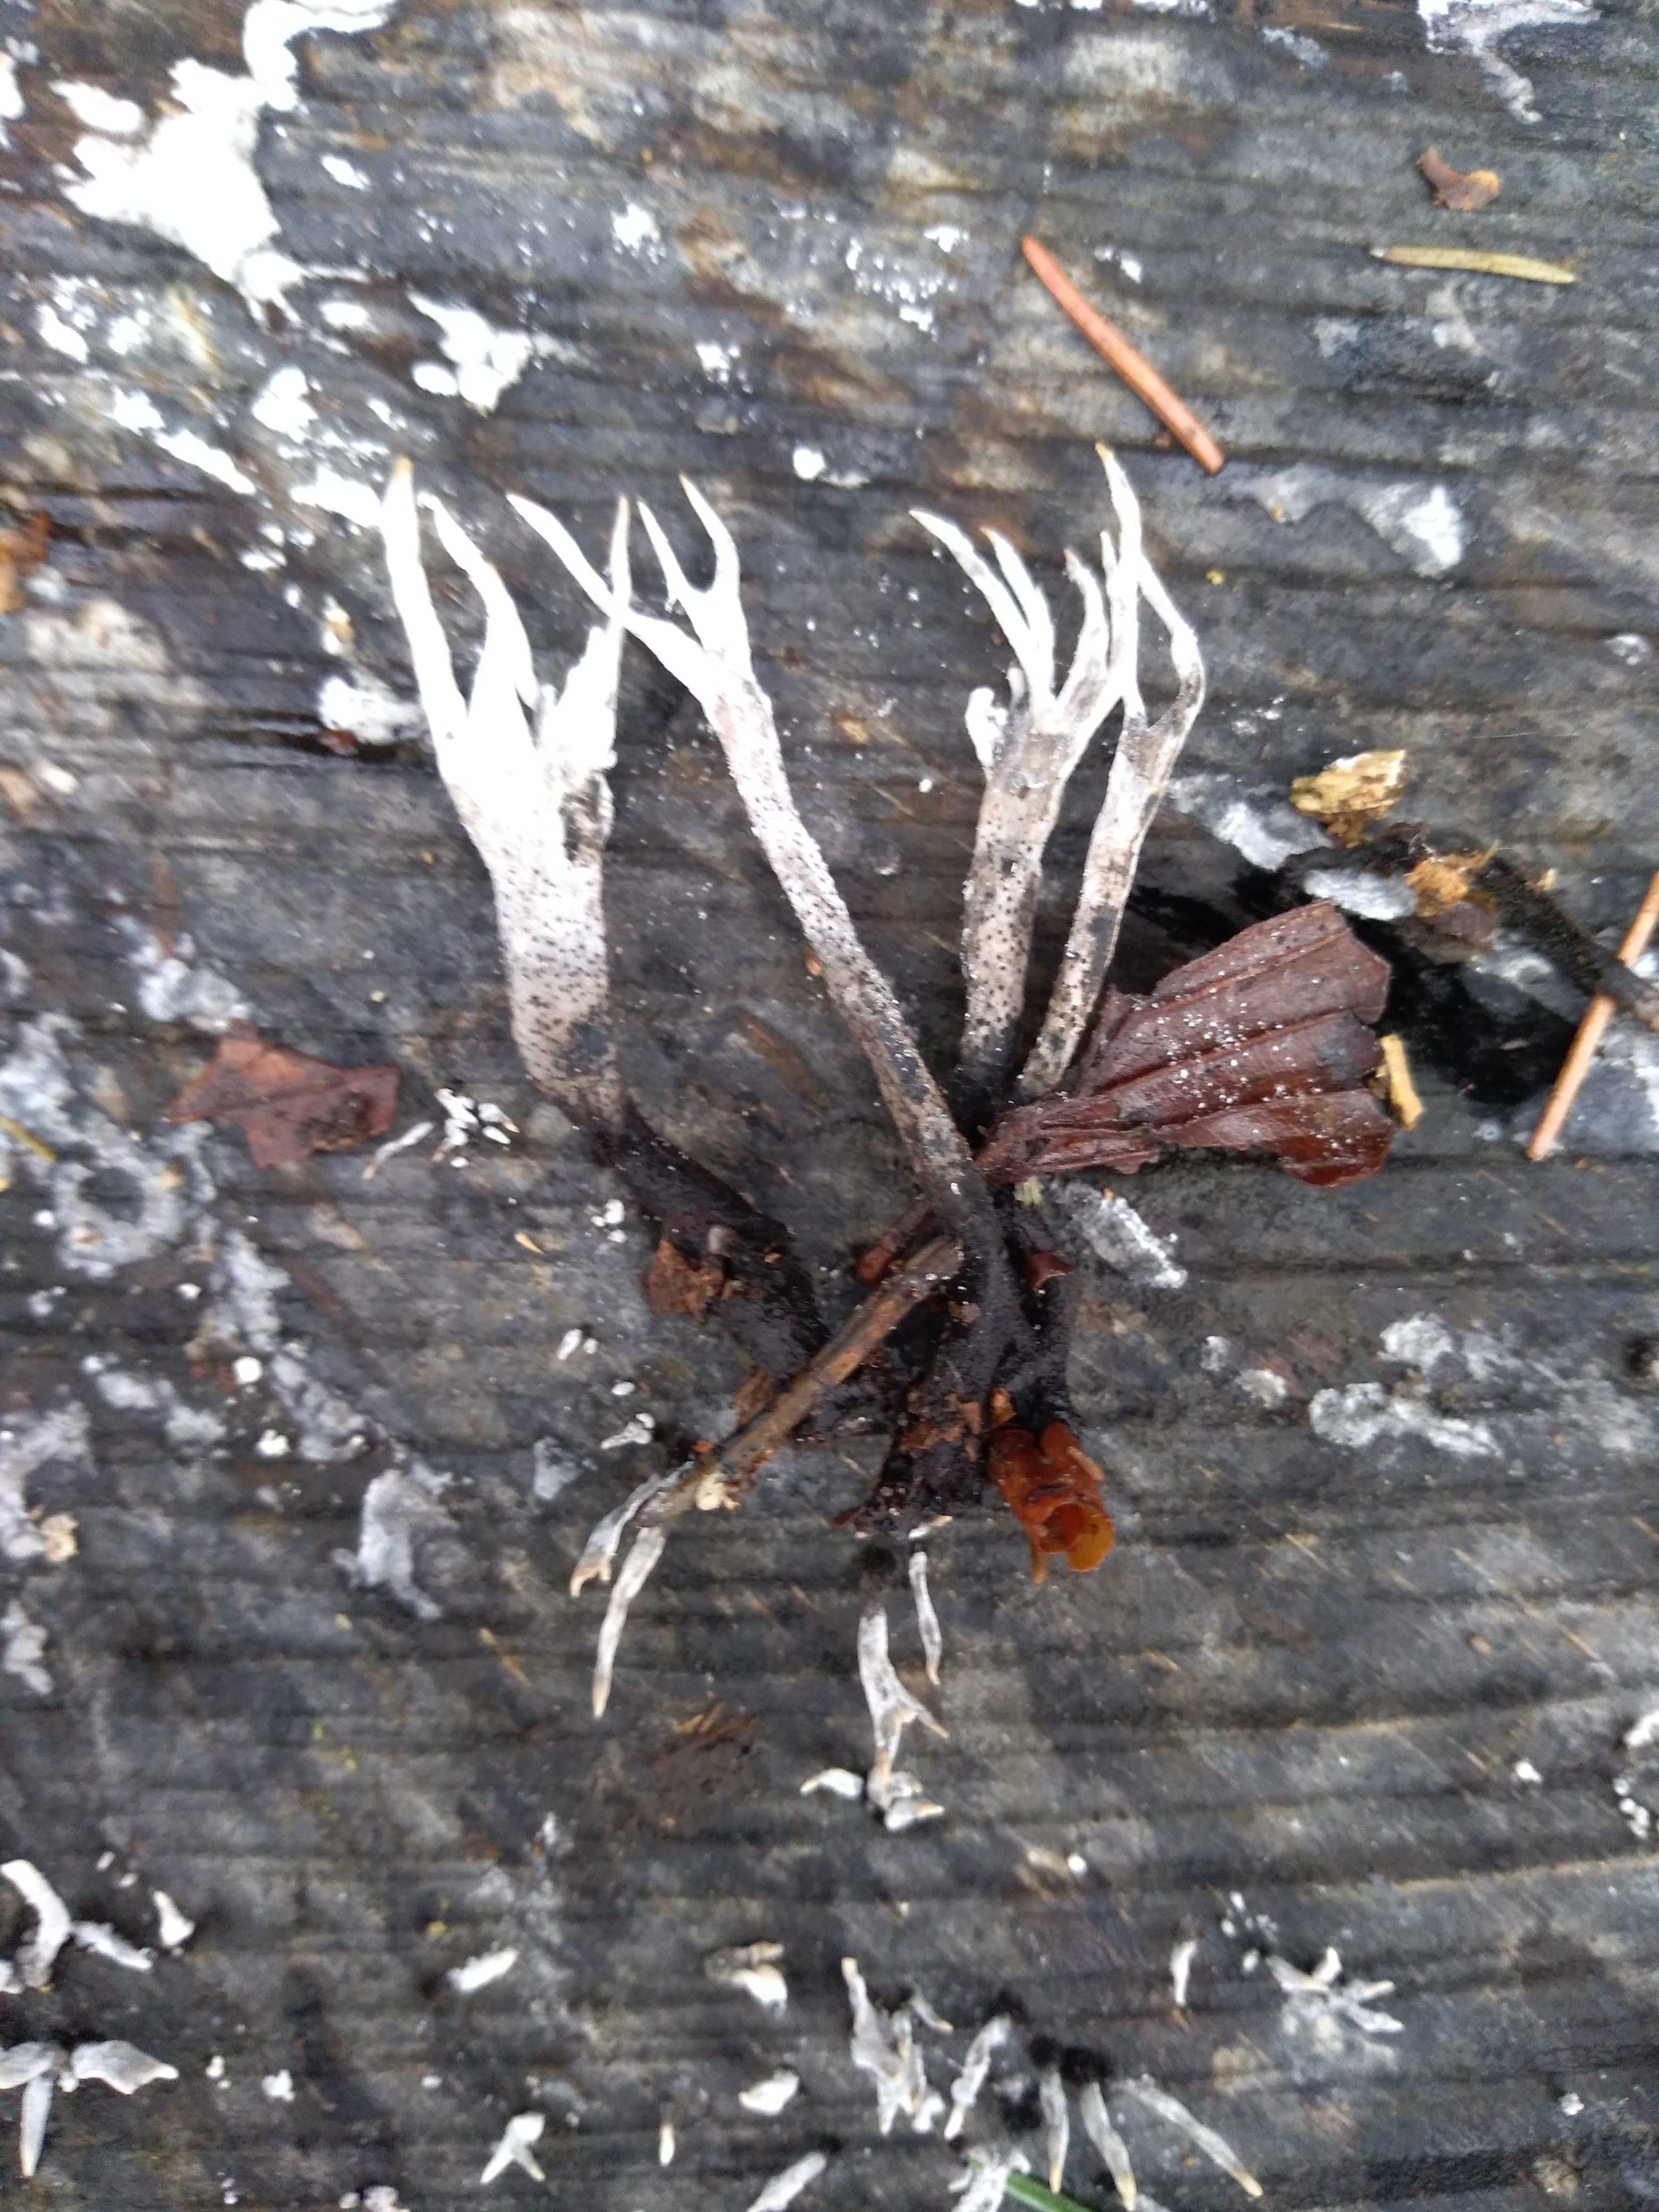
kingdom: Fungi
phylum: Ascomycota
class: Sordariomycetes
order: Xylariales
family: Xylariaceae
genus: Xylaria
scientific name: Xylaria hypoxylon
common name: grenet stødsvamp
